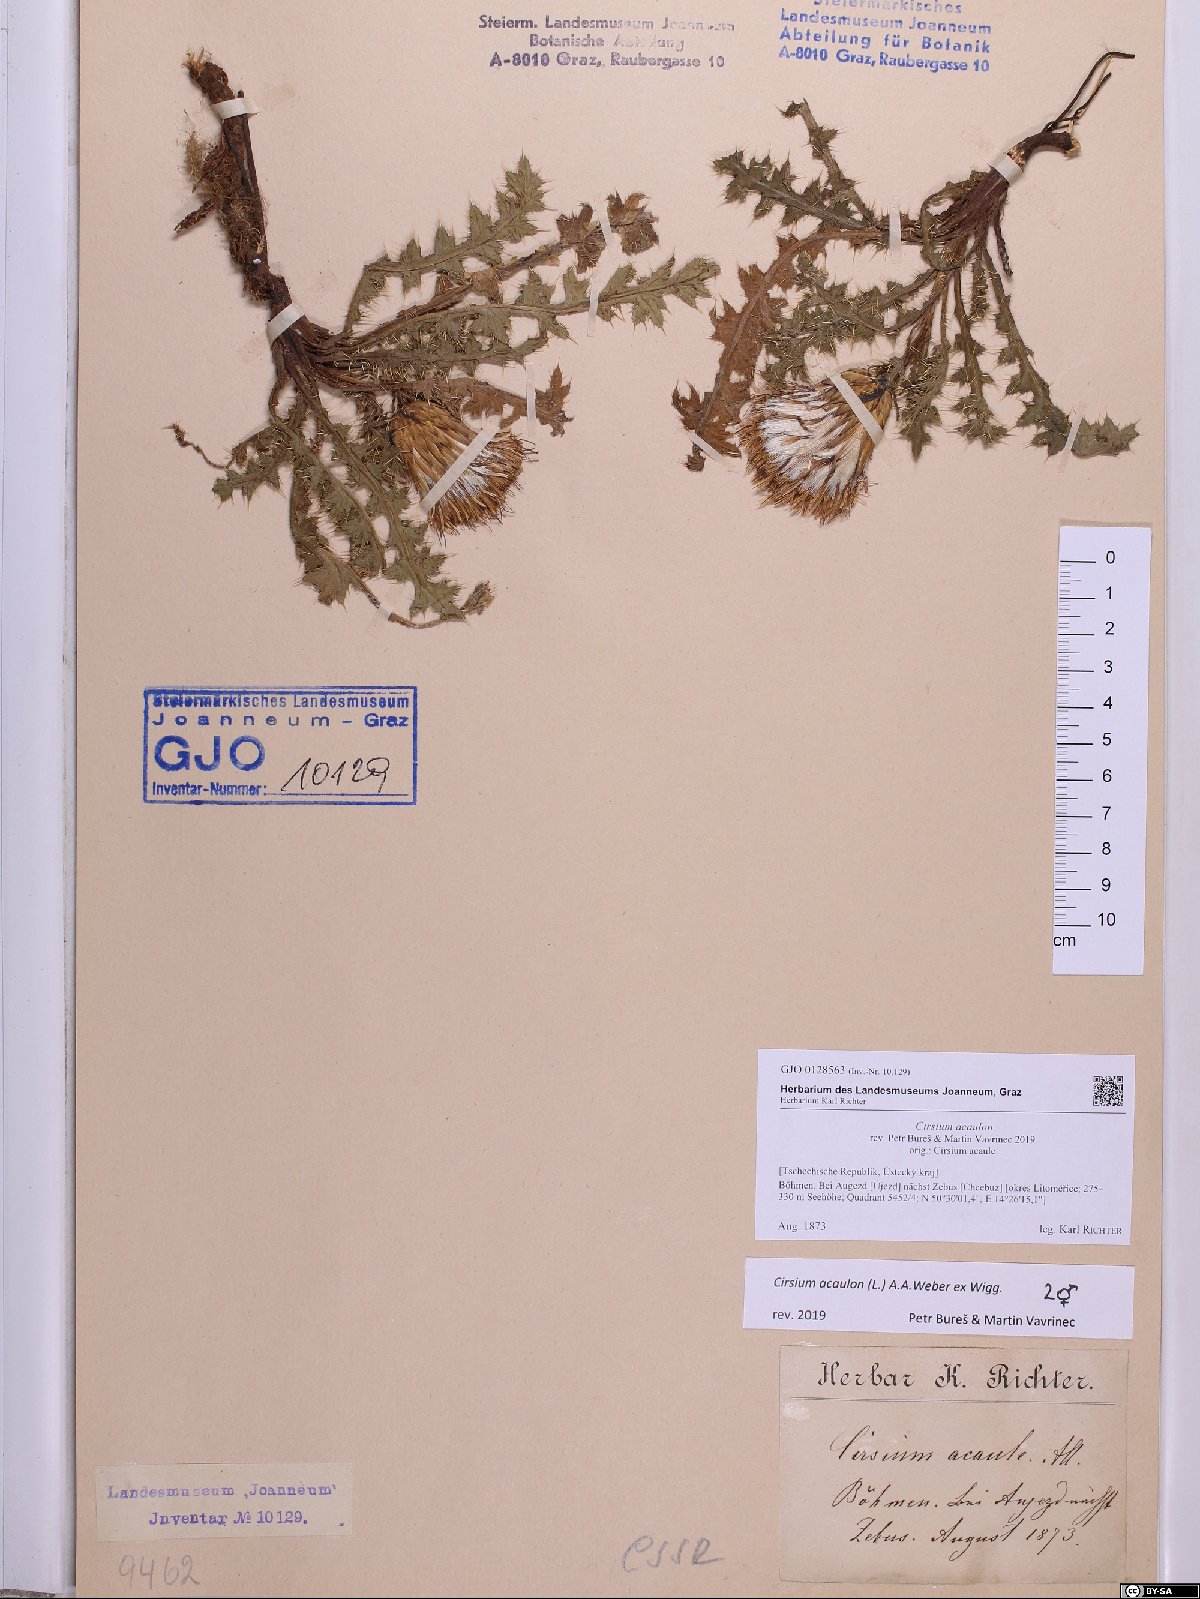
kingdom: Plantae
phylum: Tracheophyta
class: Magnoliopsida
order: Asterales
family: Asteraceae
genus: Cirsium
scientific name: Cirsium acaulon
